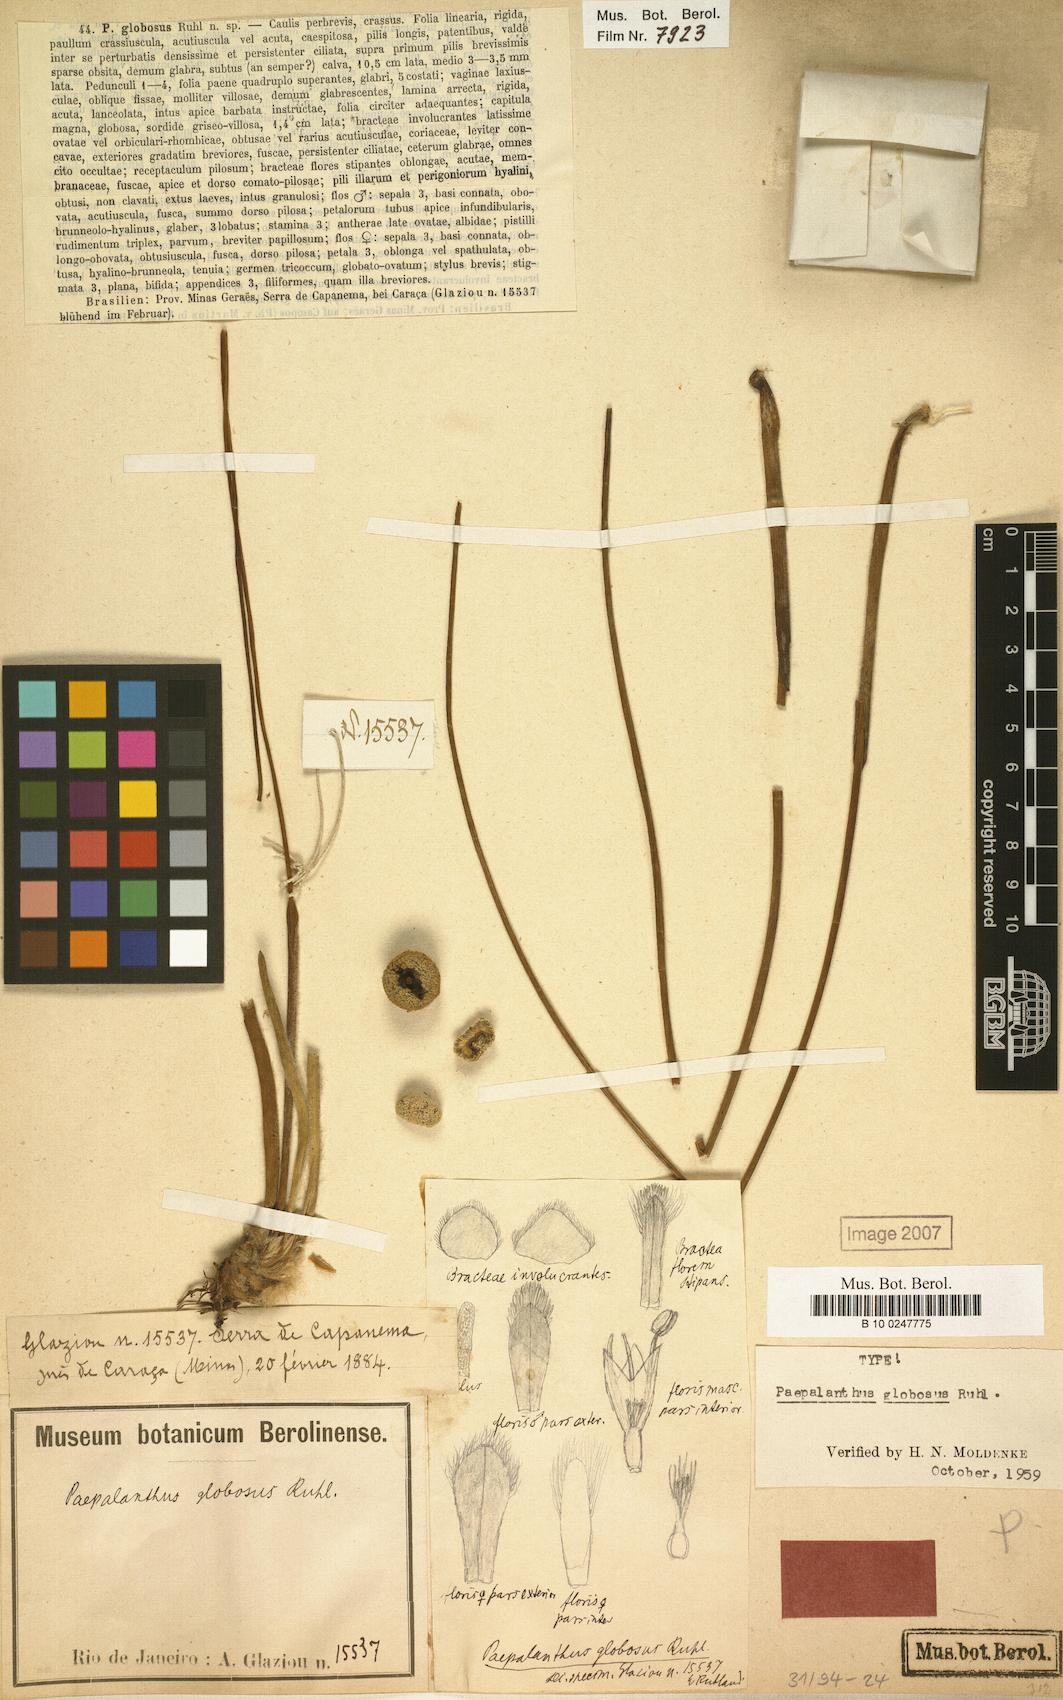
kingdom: Plantae
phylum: Tracheophyta
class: Liliopsida
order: Poales
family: Eriocaulaceae
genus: Paepalanthus
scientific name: Paepalanthus globosus
